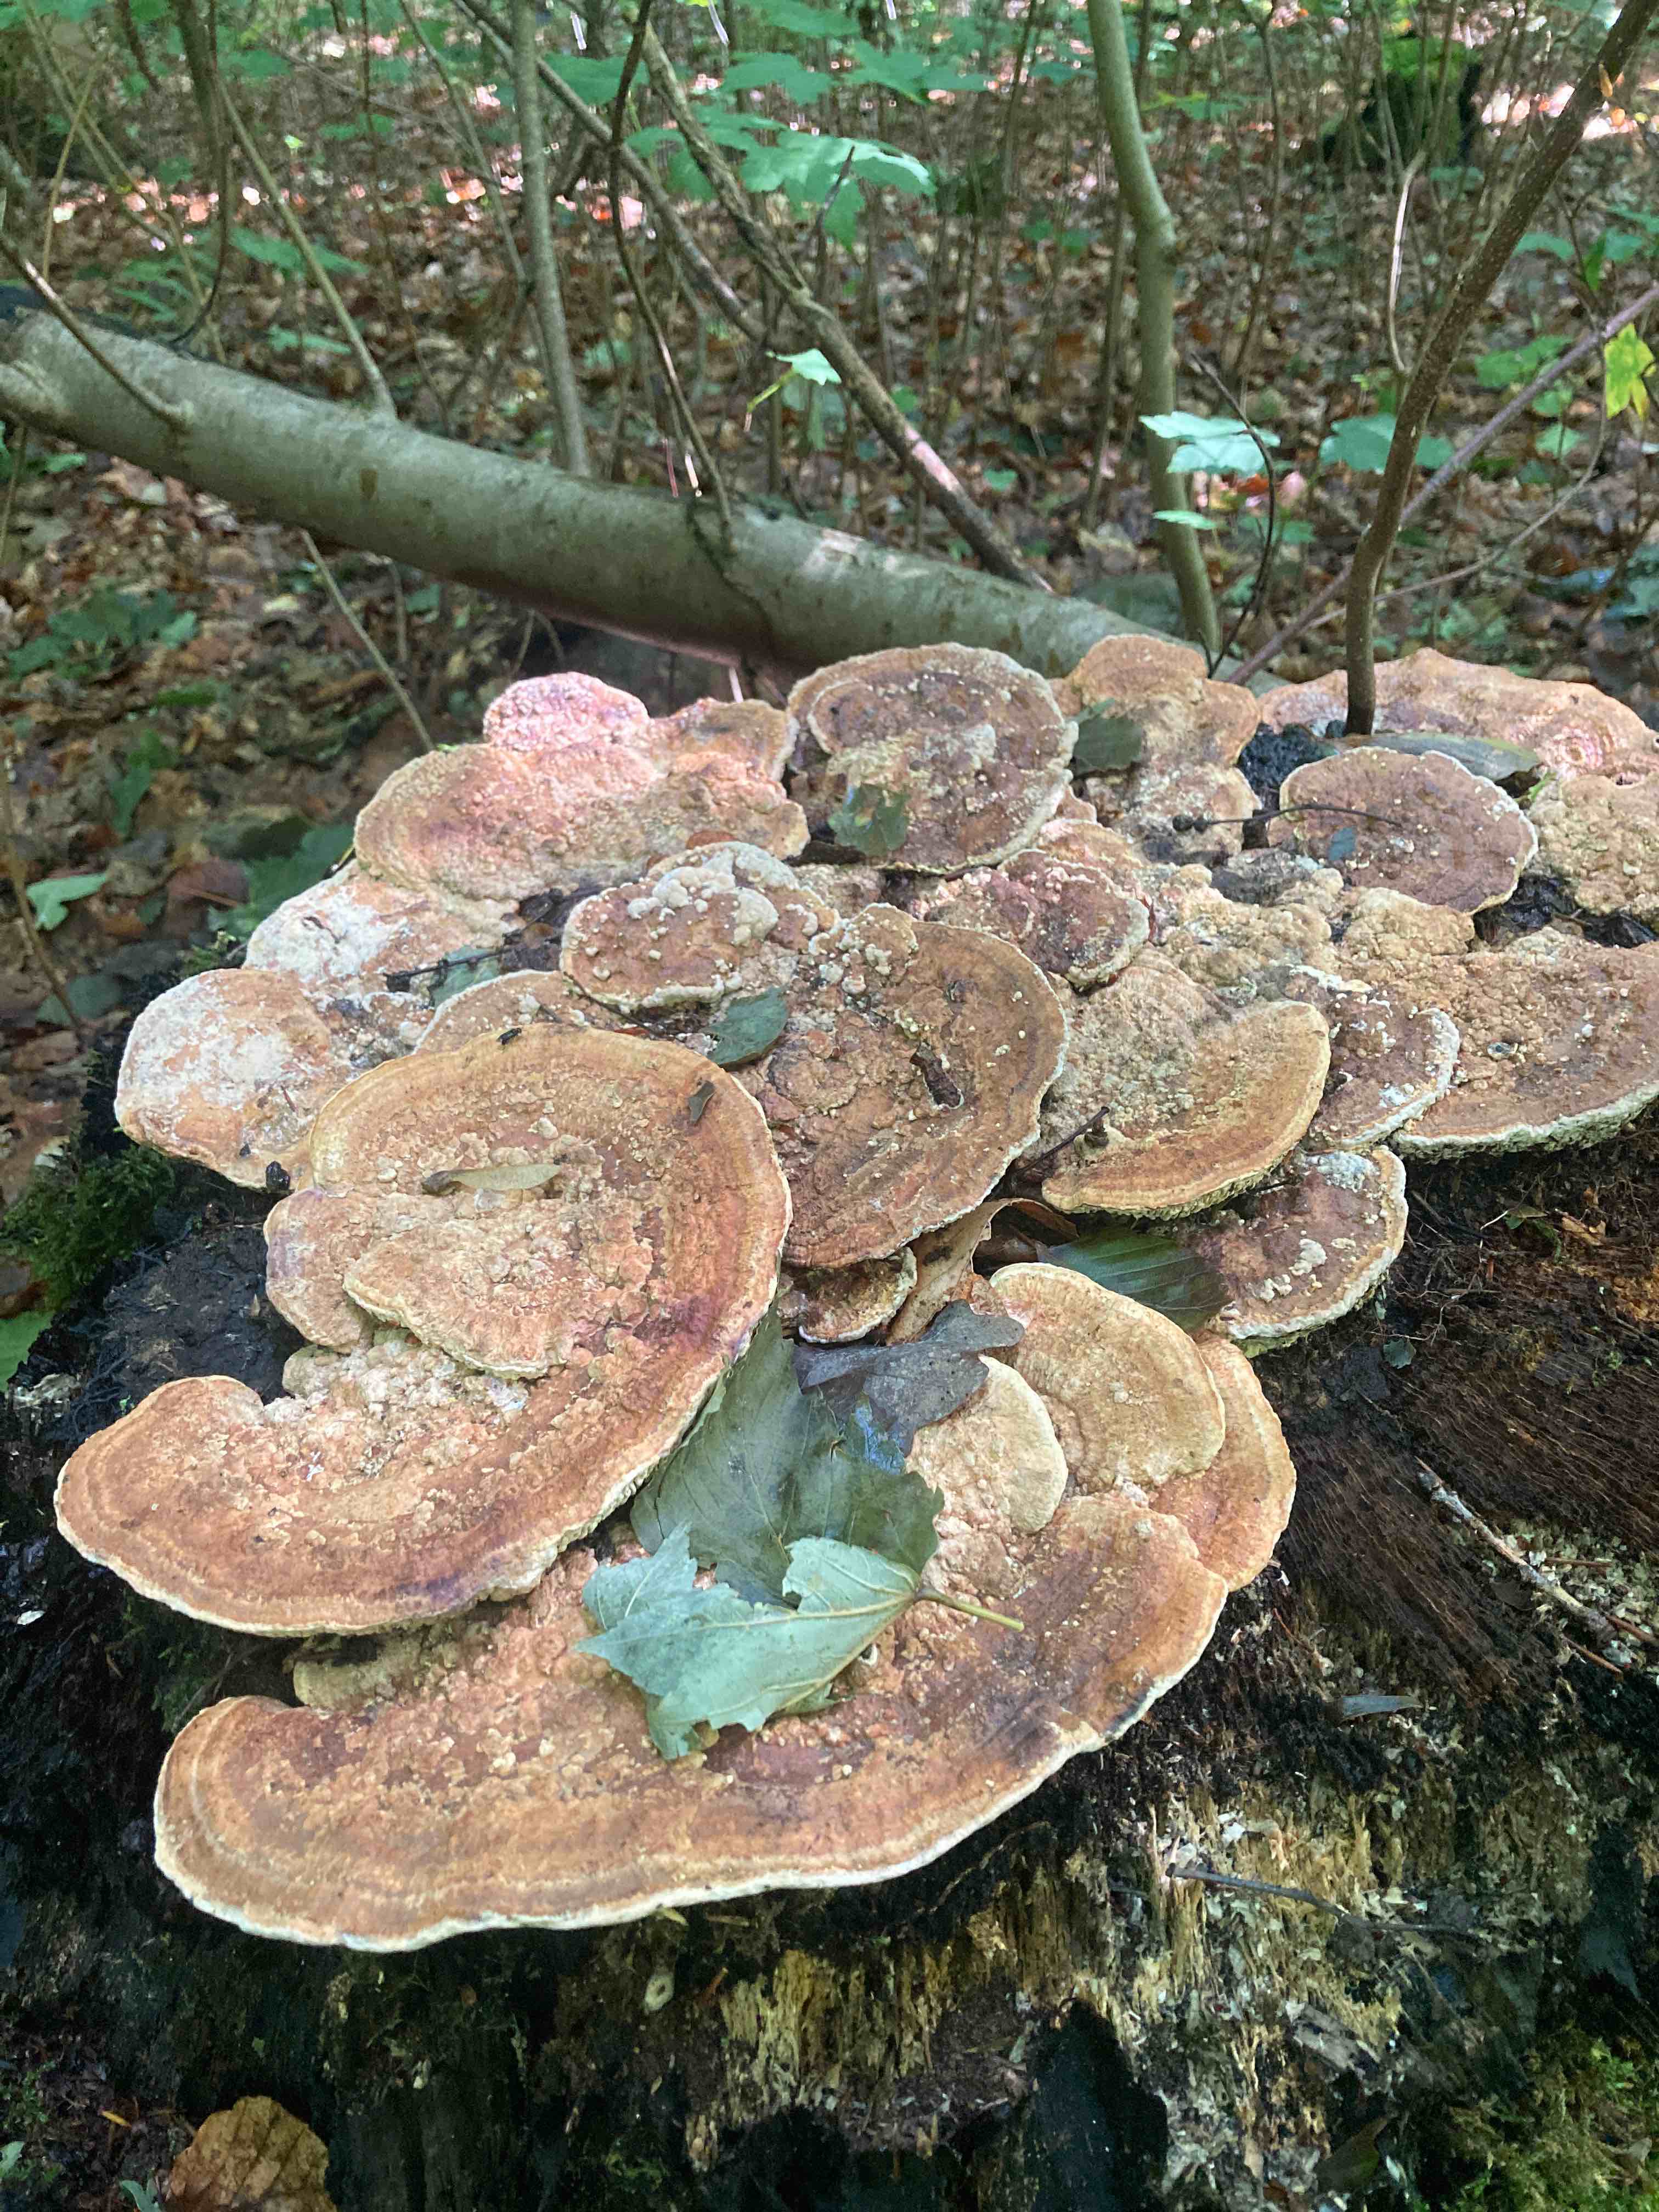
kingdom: Fungi
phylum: Basidiomycota
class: Agaricomycetes
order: Polyporales
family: Fomitopsidaceae
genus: Daedalea
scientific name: Daedalea quercina
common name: ege-labyrintsvamp
